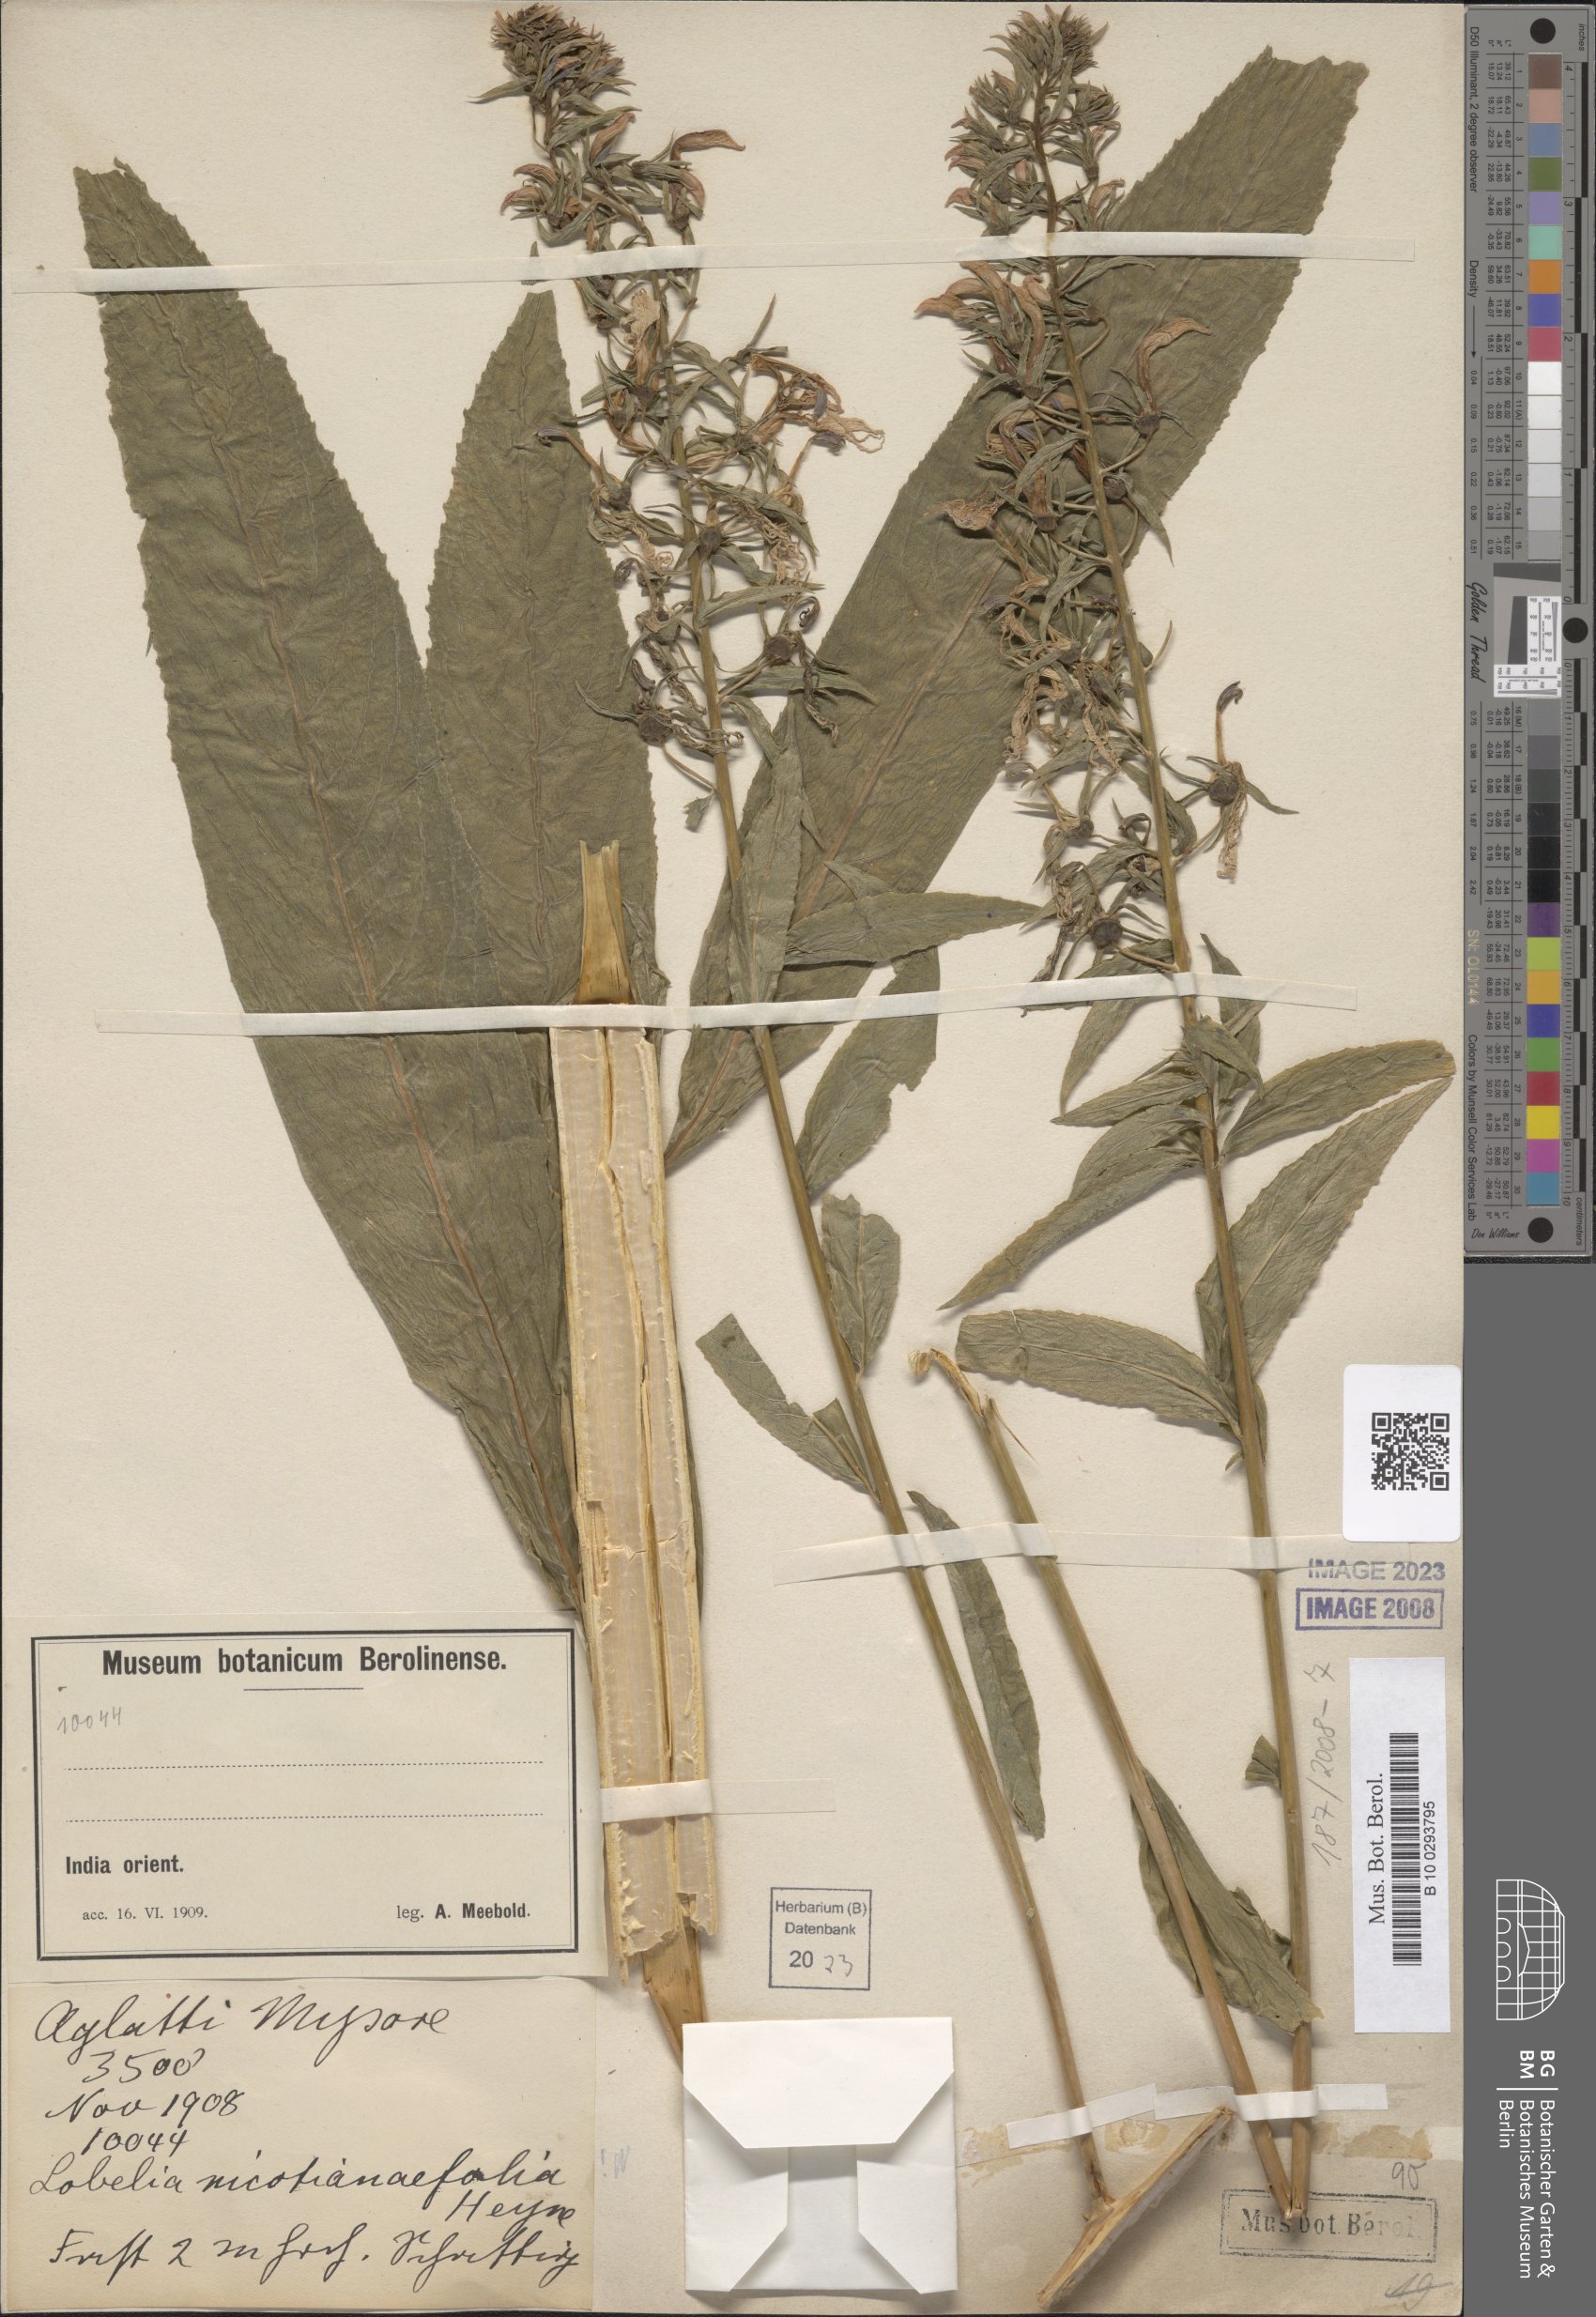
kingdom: Plantae
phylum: Tracheophyta
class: Magnoliopsida
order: Asterales
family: Campanulaceae
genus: Lobelia
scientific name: Lobelia nicotianifolia
